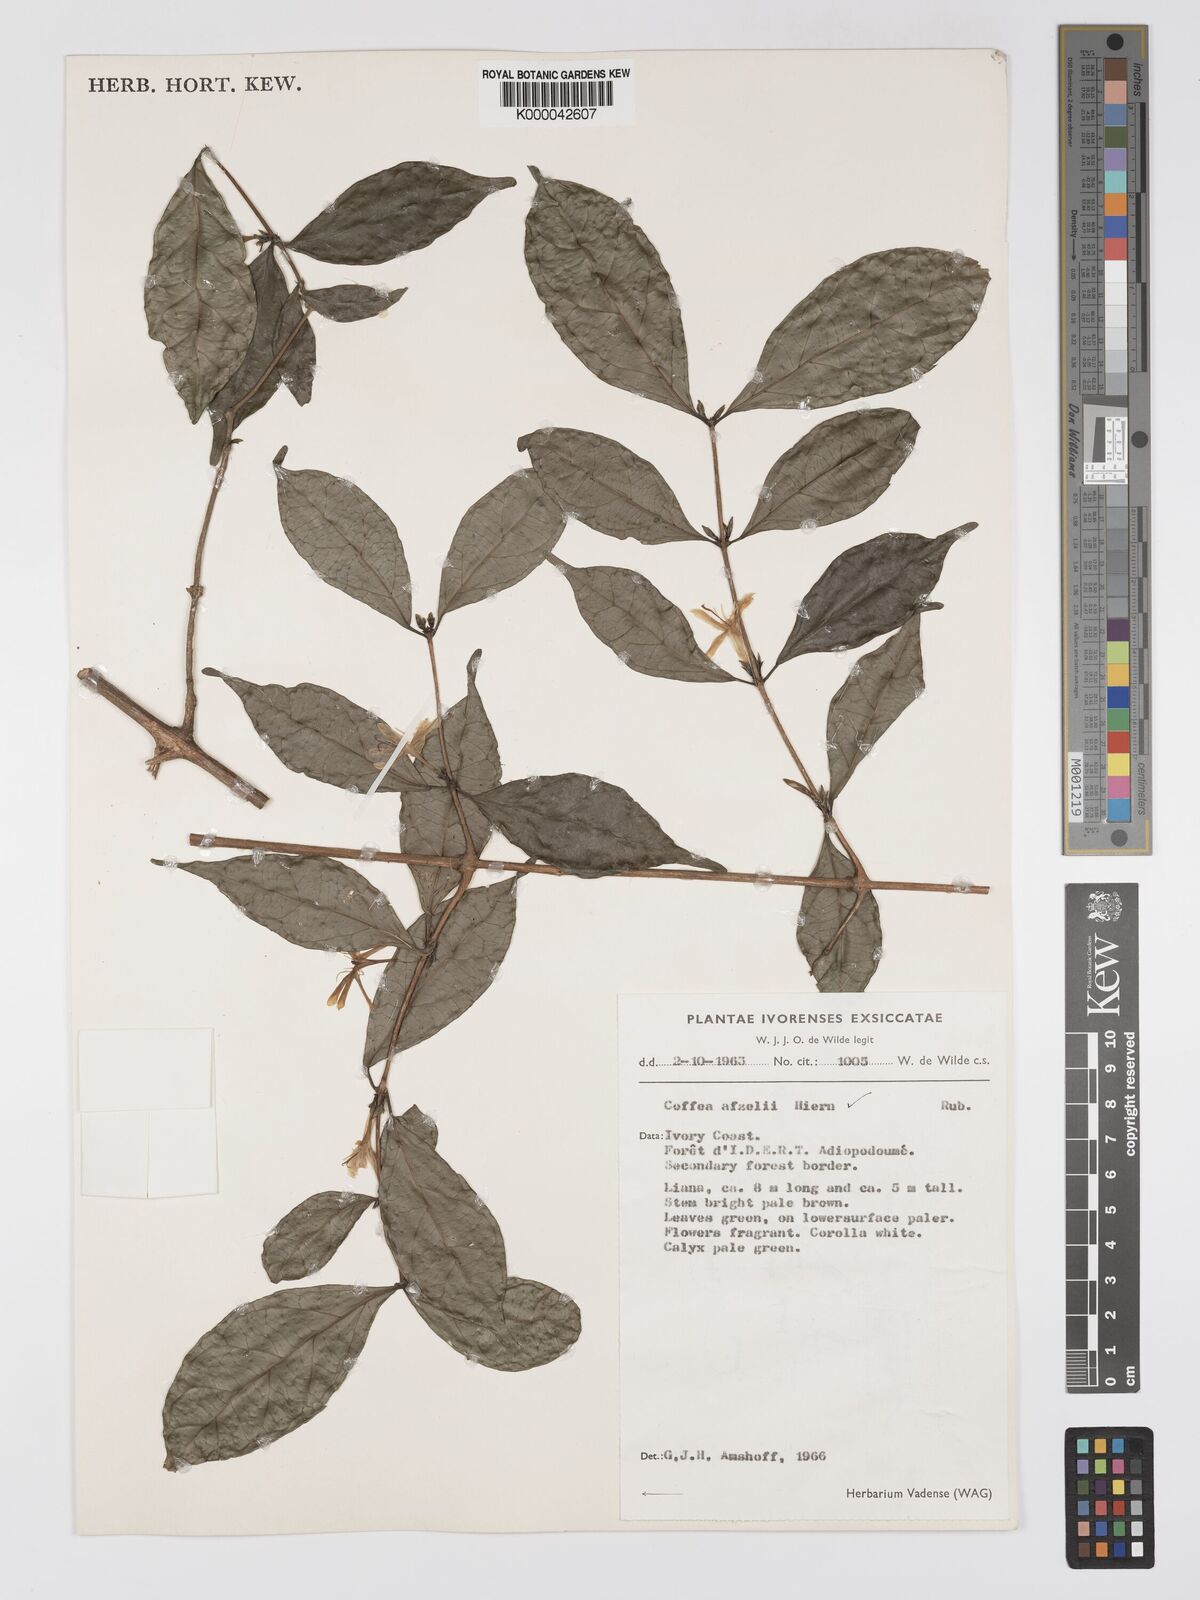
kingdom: Plantae
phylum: Tracheophyta
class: Magnoliopsida
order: Gentianales
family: Rubiaceae
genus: Argocoffeopsis
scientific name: Argocoffeopsis afzelii
